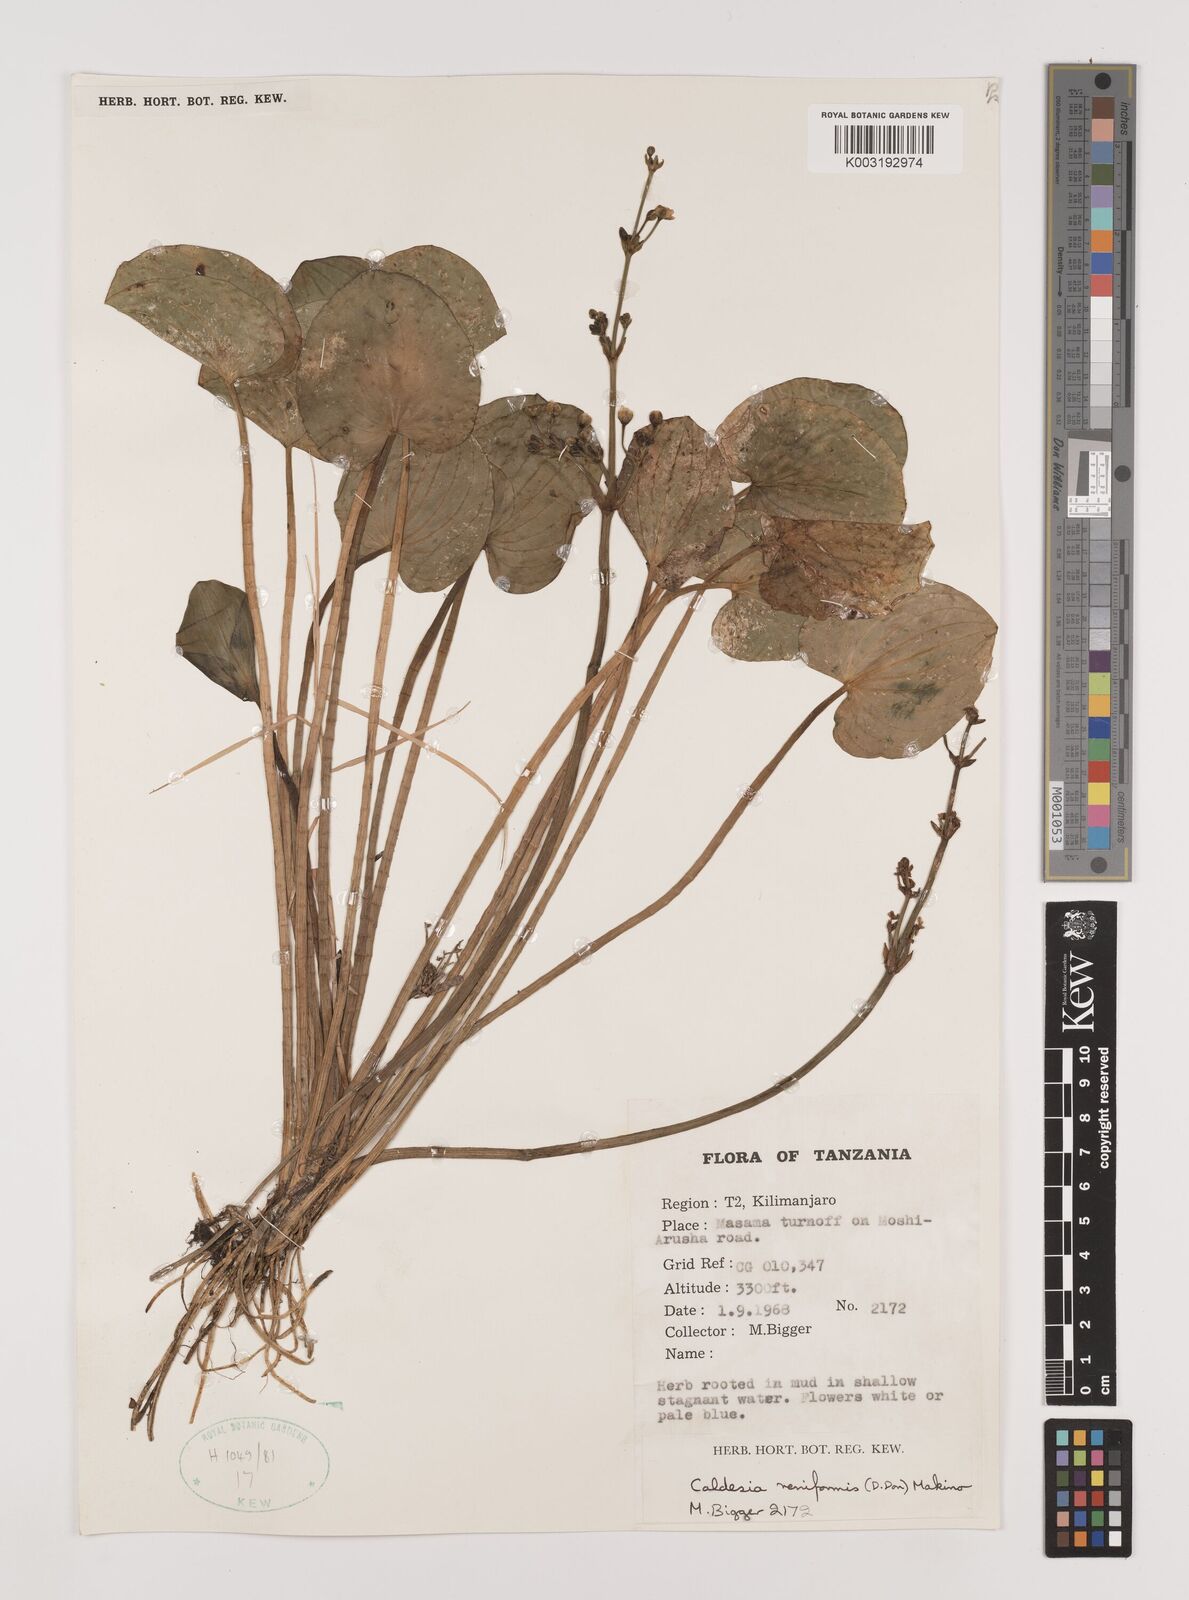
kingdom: Plantae
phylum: Tracheophyta
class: Liliopsida
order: Alismatales
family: Alismataceae
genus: Caldesia
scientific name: Caldesia parnassifolia
